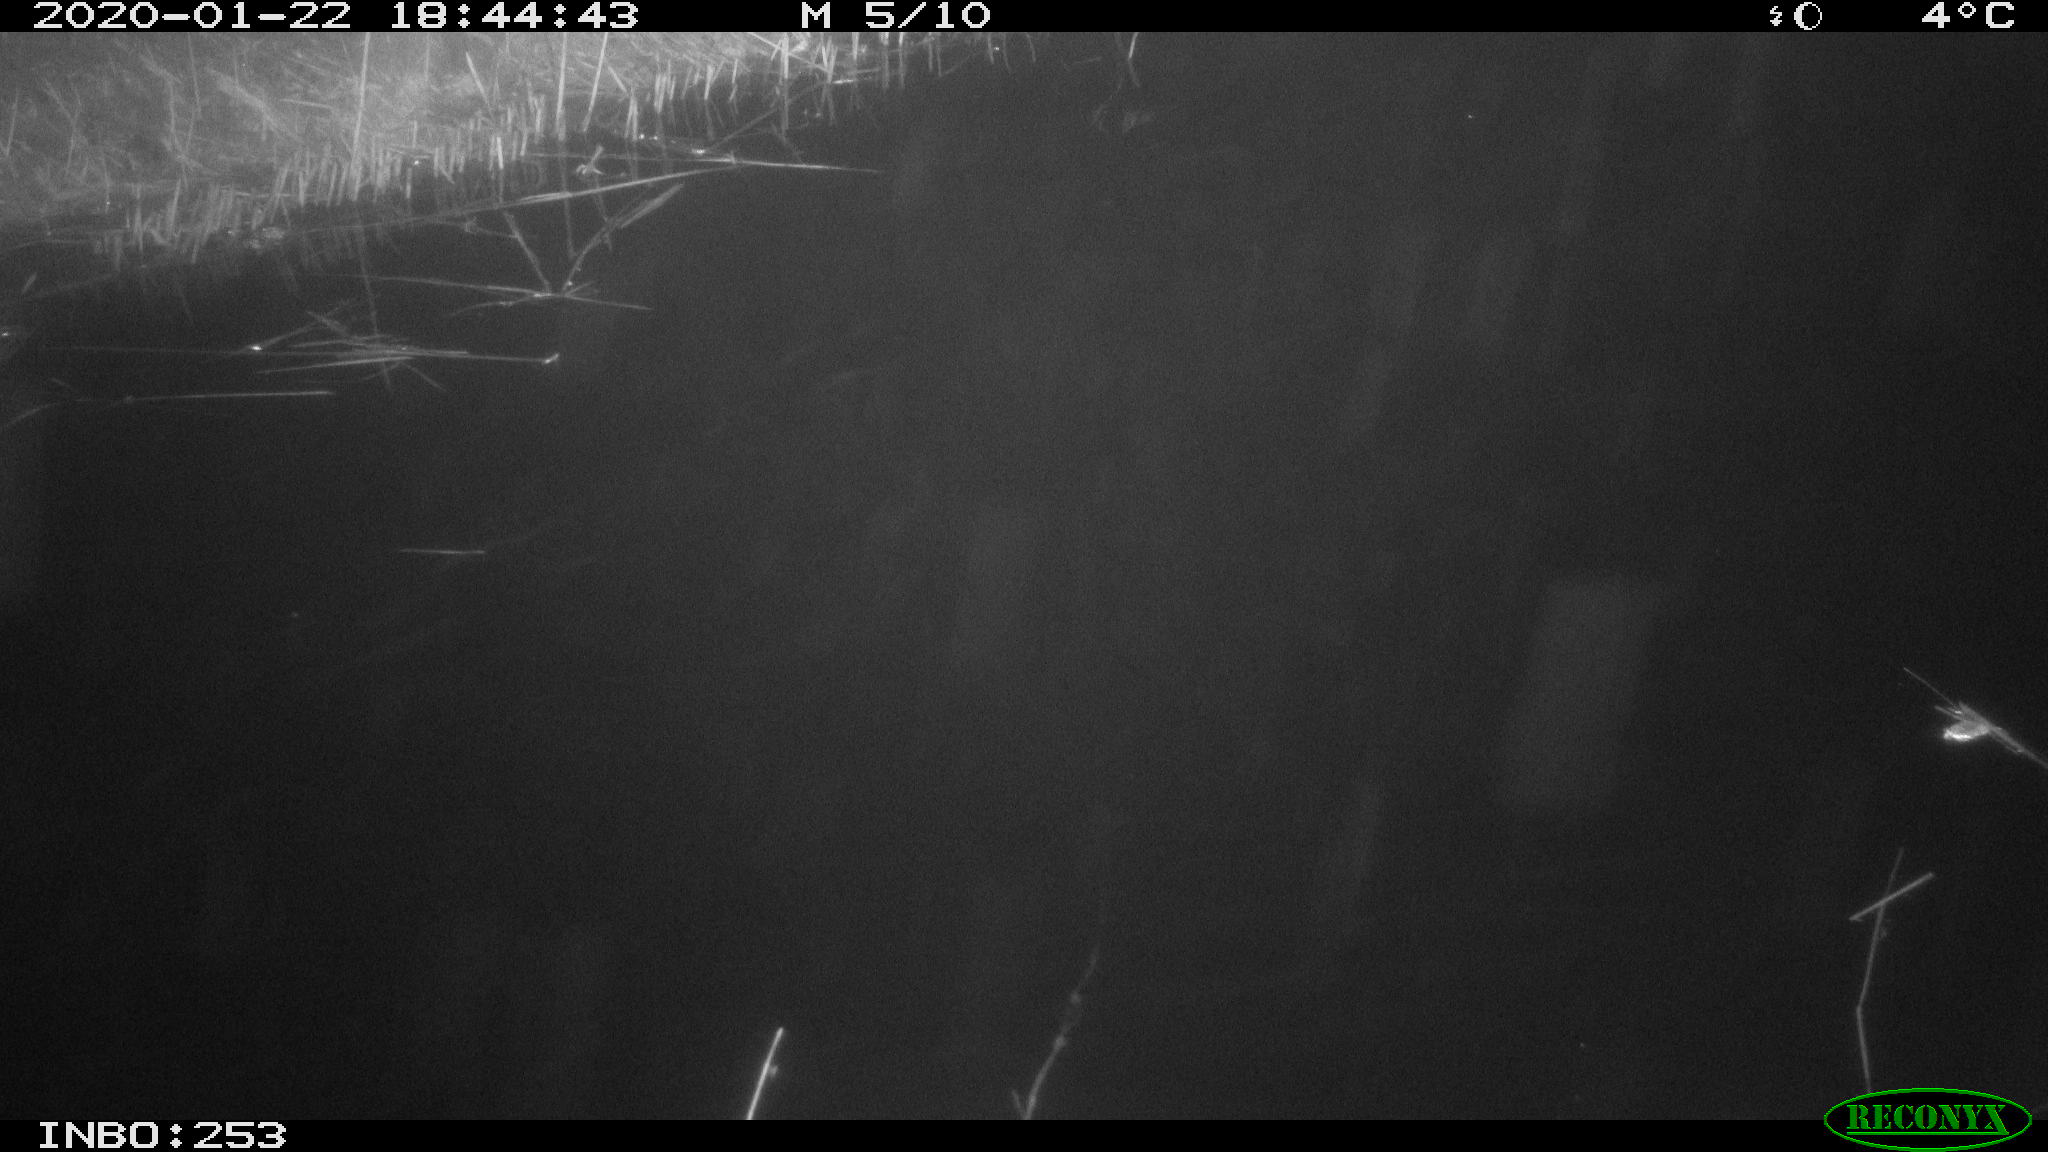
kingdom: Animalia
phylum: Chordata
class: Mammalia
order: Rodentia
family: Cricetidae
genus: Ondatra
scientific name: Ondatra zibethicus
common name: Muskrat
